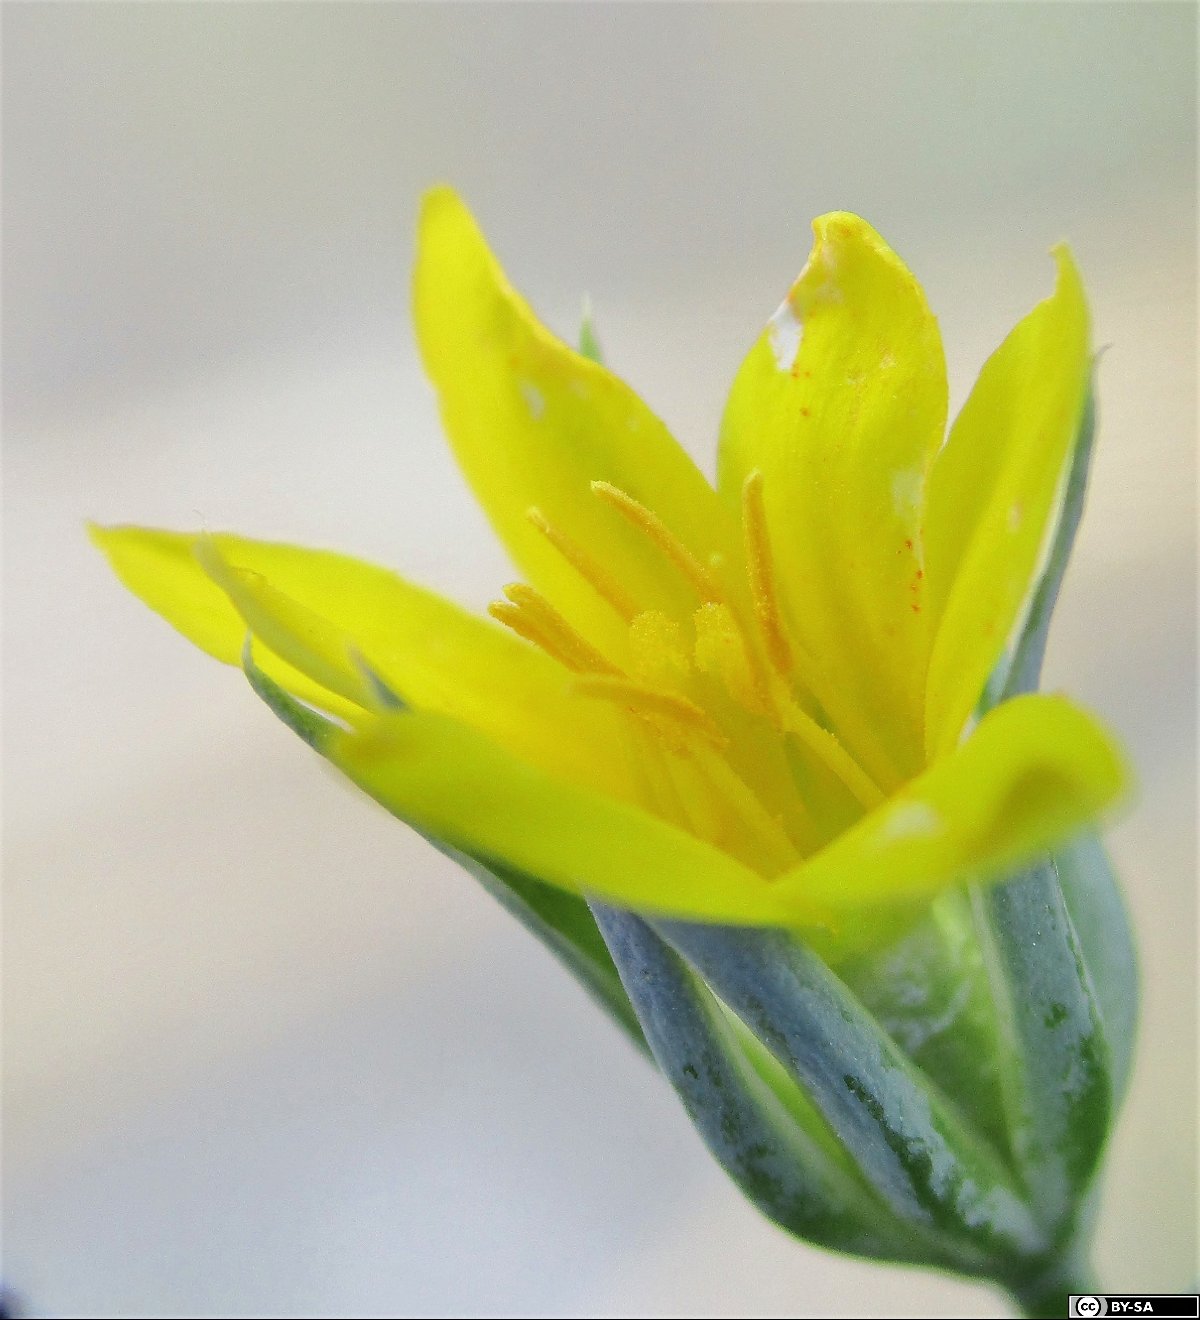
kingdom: Plantae
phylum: Tracheophyta
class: Magnoliopsida
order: Gentianales
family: Gentianaceae
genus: Blackstonia
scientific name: Blackstonia acuminata
